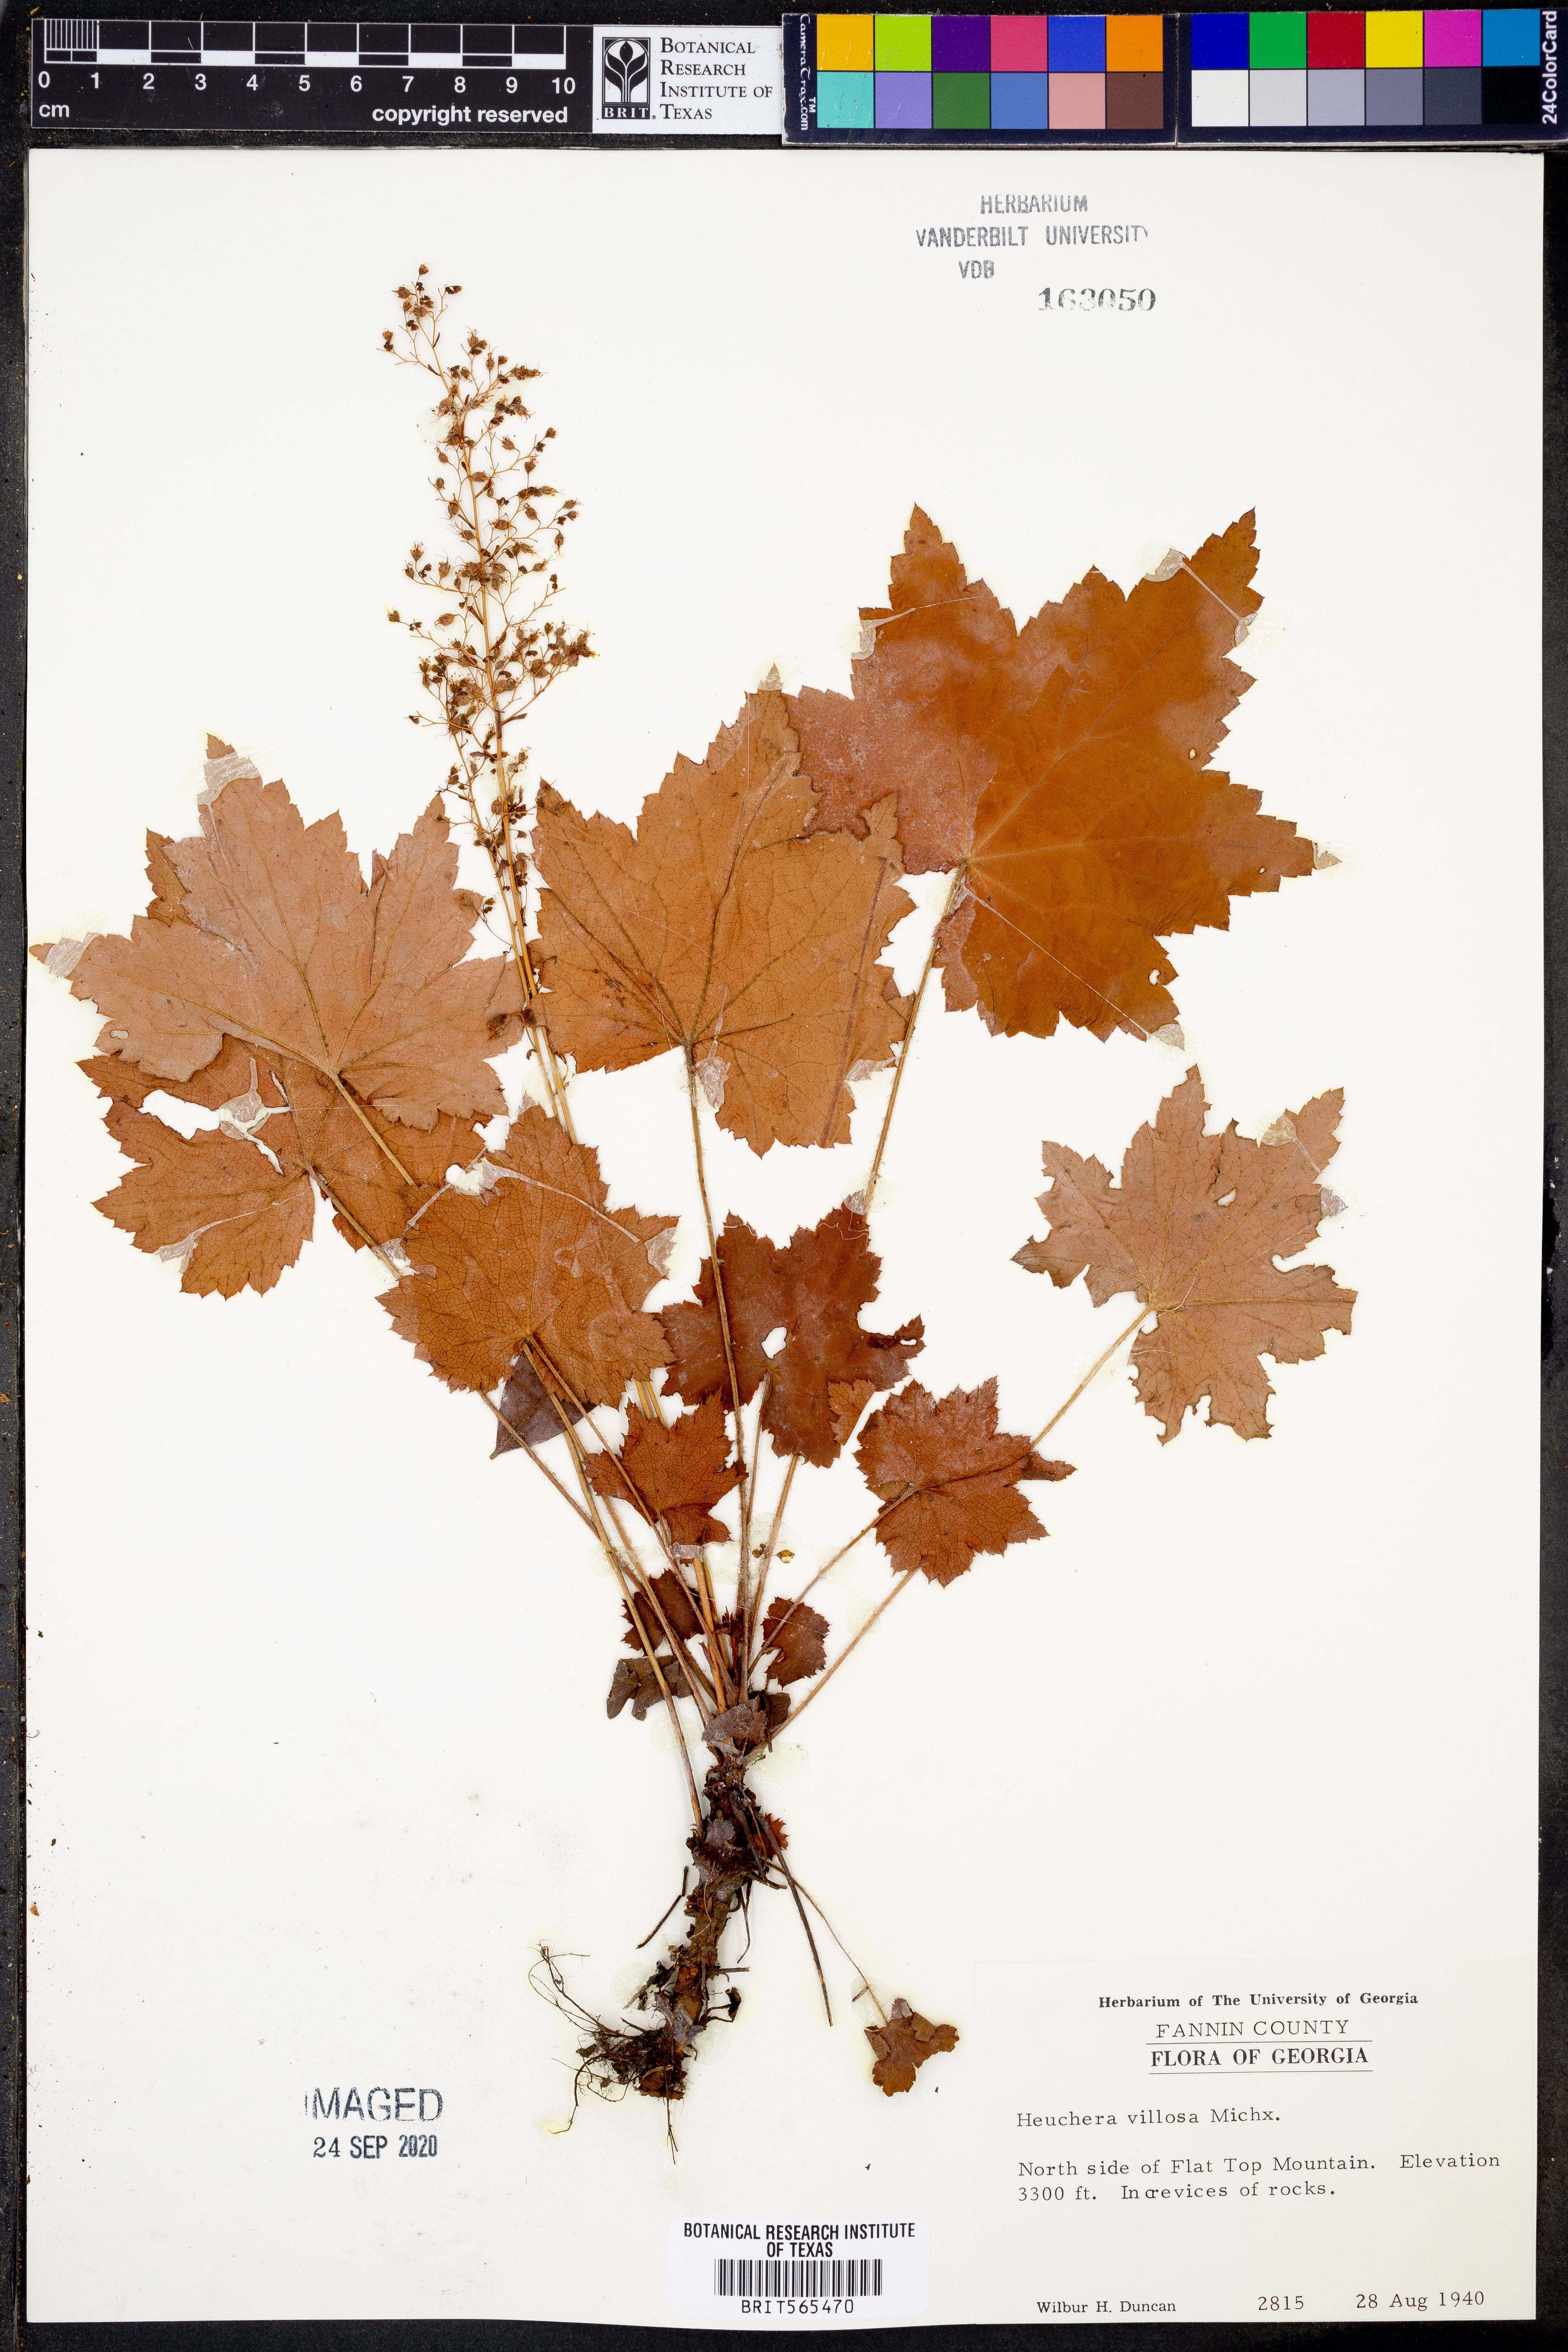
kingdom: Plantae
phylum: Tracheophyta
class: Magnoliopsida
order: Saxifragales
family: Saxifragaceae
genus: Heuchera
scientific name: Heuchera villosa
